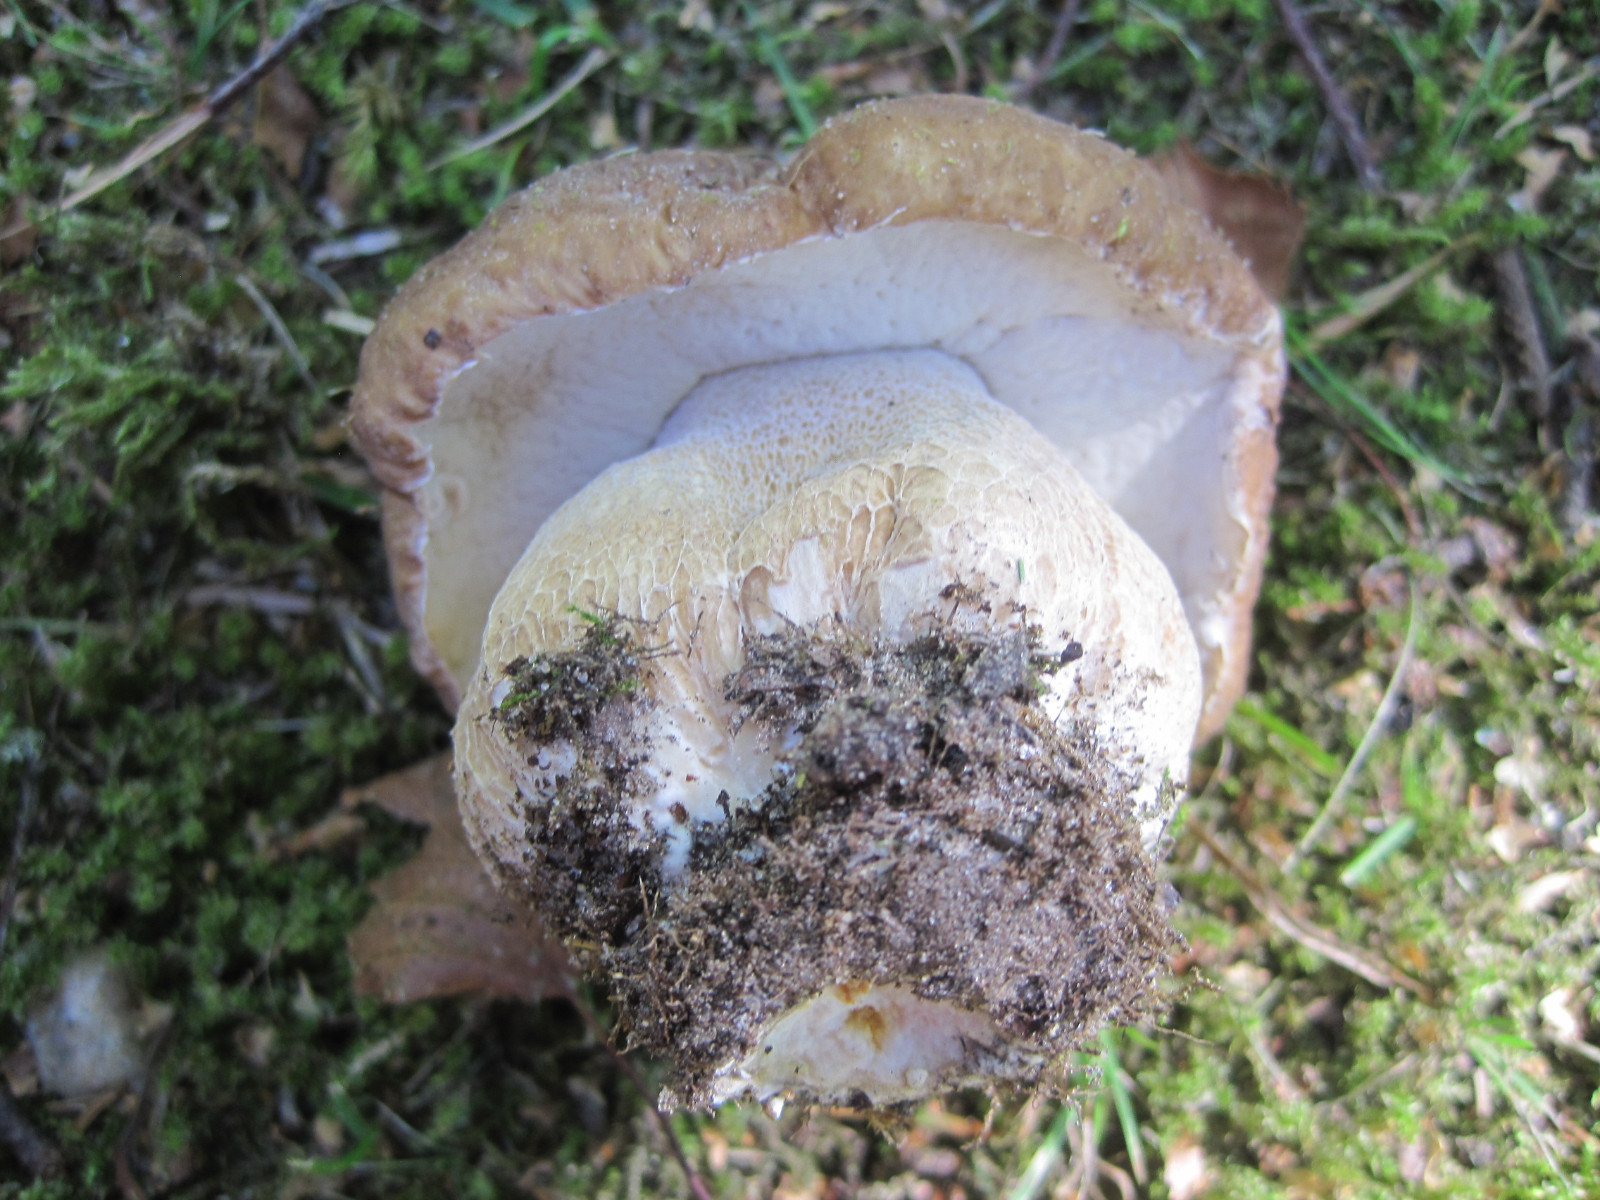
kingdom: Fungi
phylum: Basidiomycota
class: Agaricomycetes
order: Boletales
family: Boletaceae
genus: Boletus
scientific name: Boletus edulis
